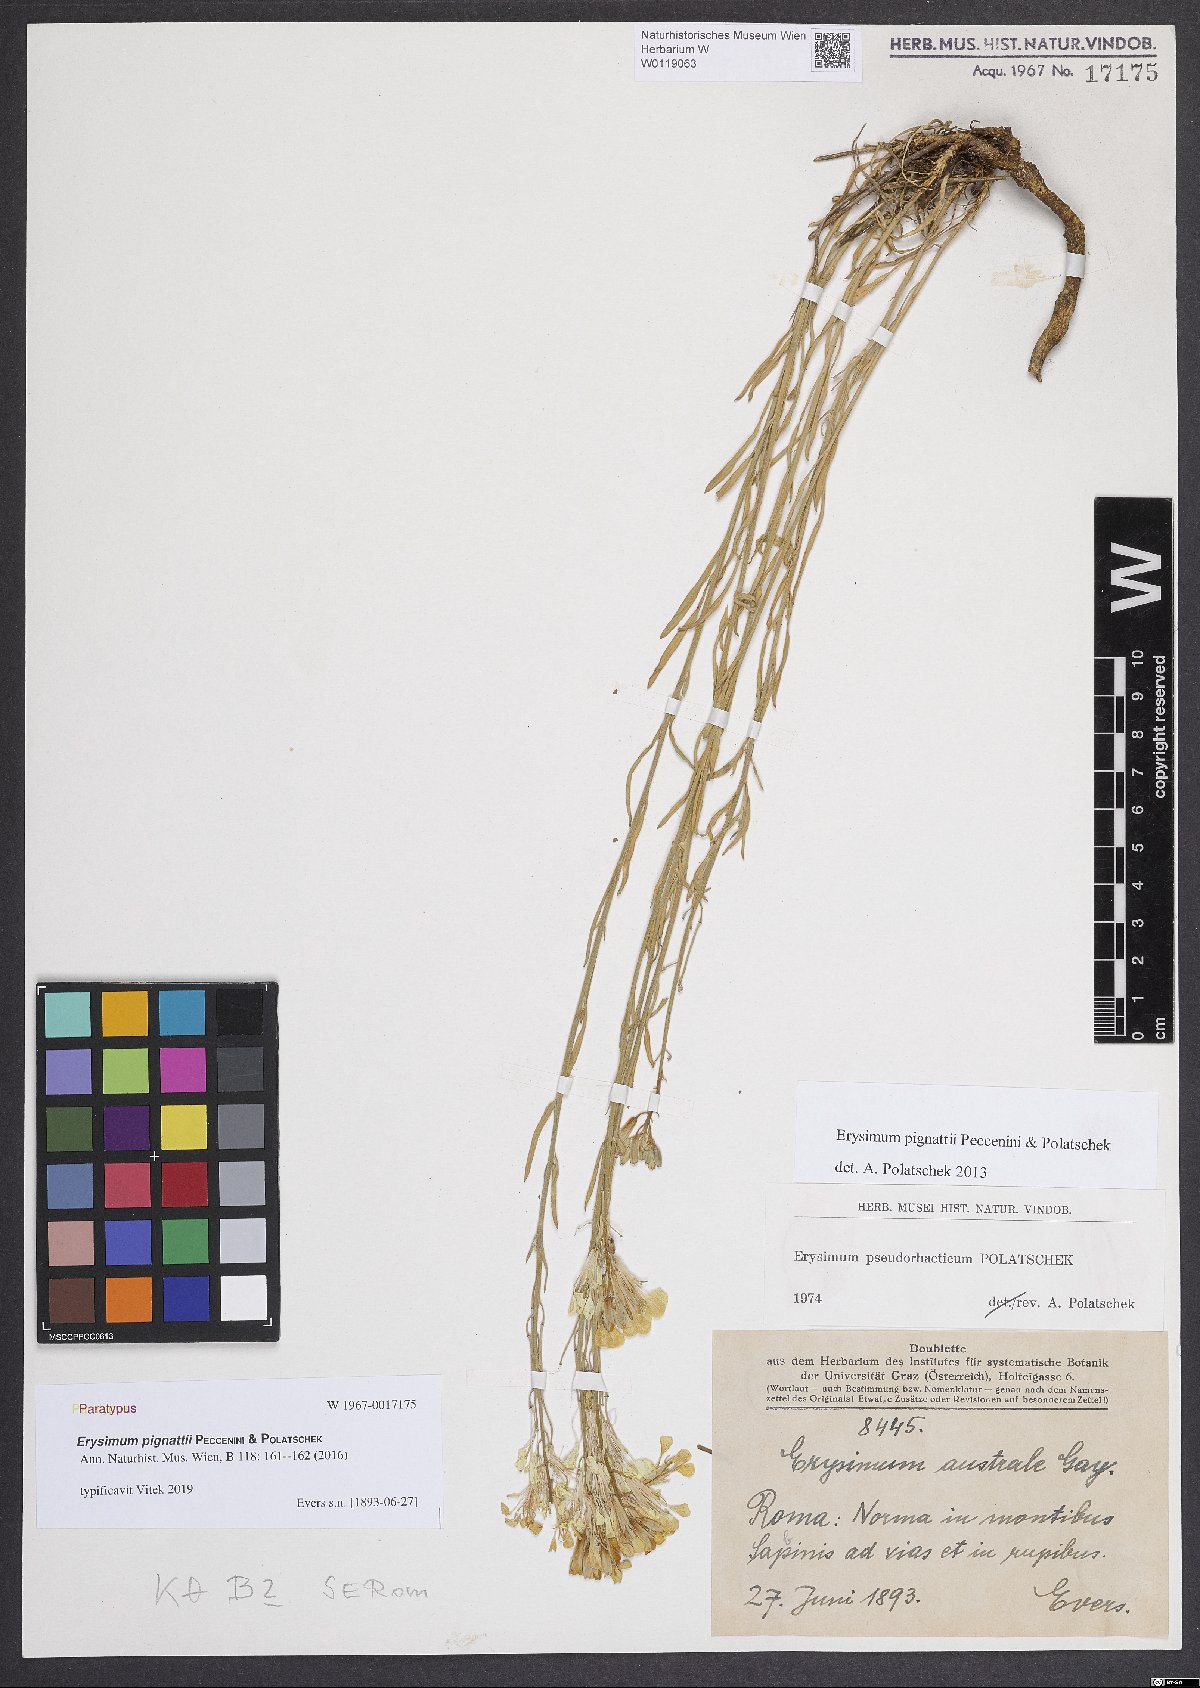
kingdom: Plantae
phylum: Tracheophyta
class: Magnoliopsida
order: Brassicales
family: Brassicaceae
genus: Erysimum
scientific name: Erysimum pignattii
